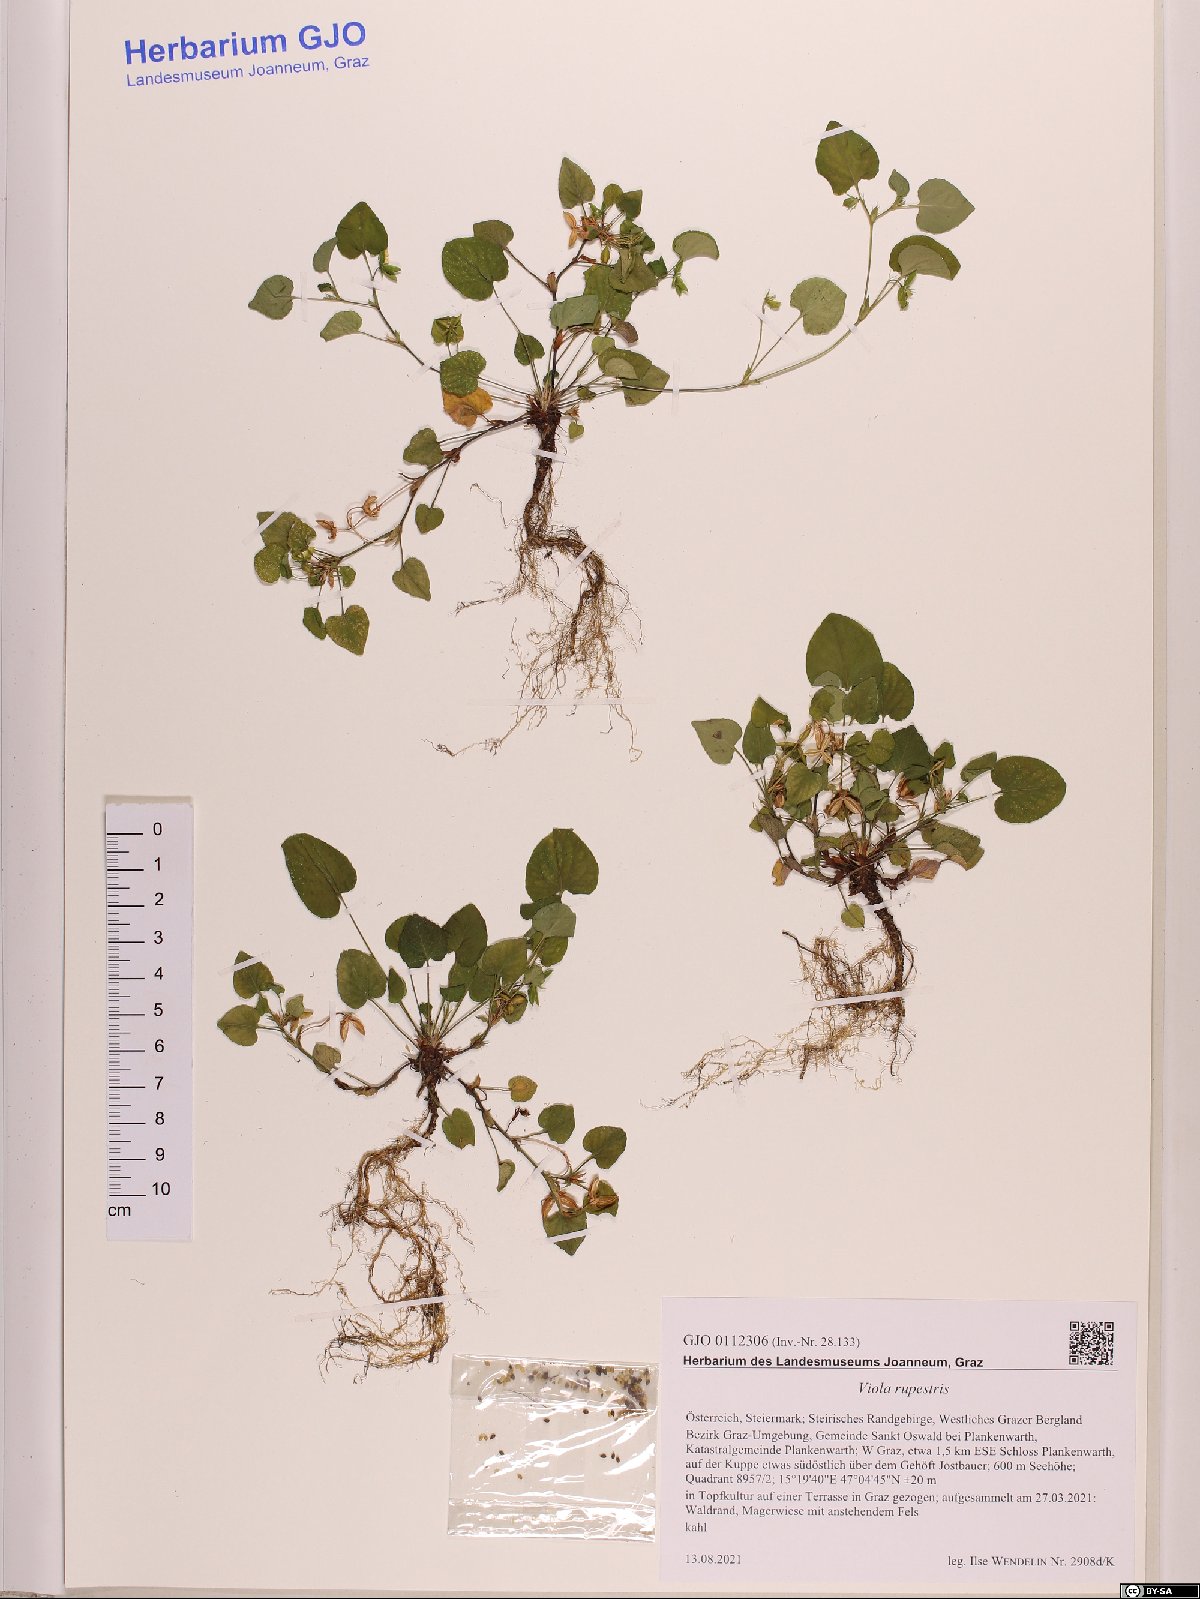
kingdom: Plantae
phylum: Tracheophyta
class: Magnoliopsida
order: Malpighiales
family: Violaceae
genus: Viola
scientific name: Viola rupestris
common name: Teesdale violet
